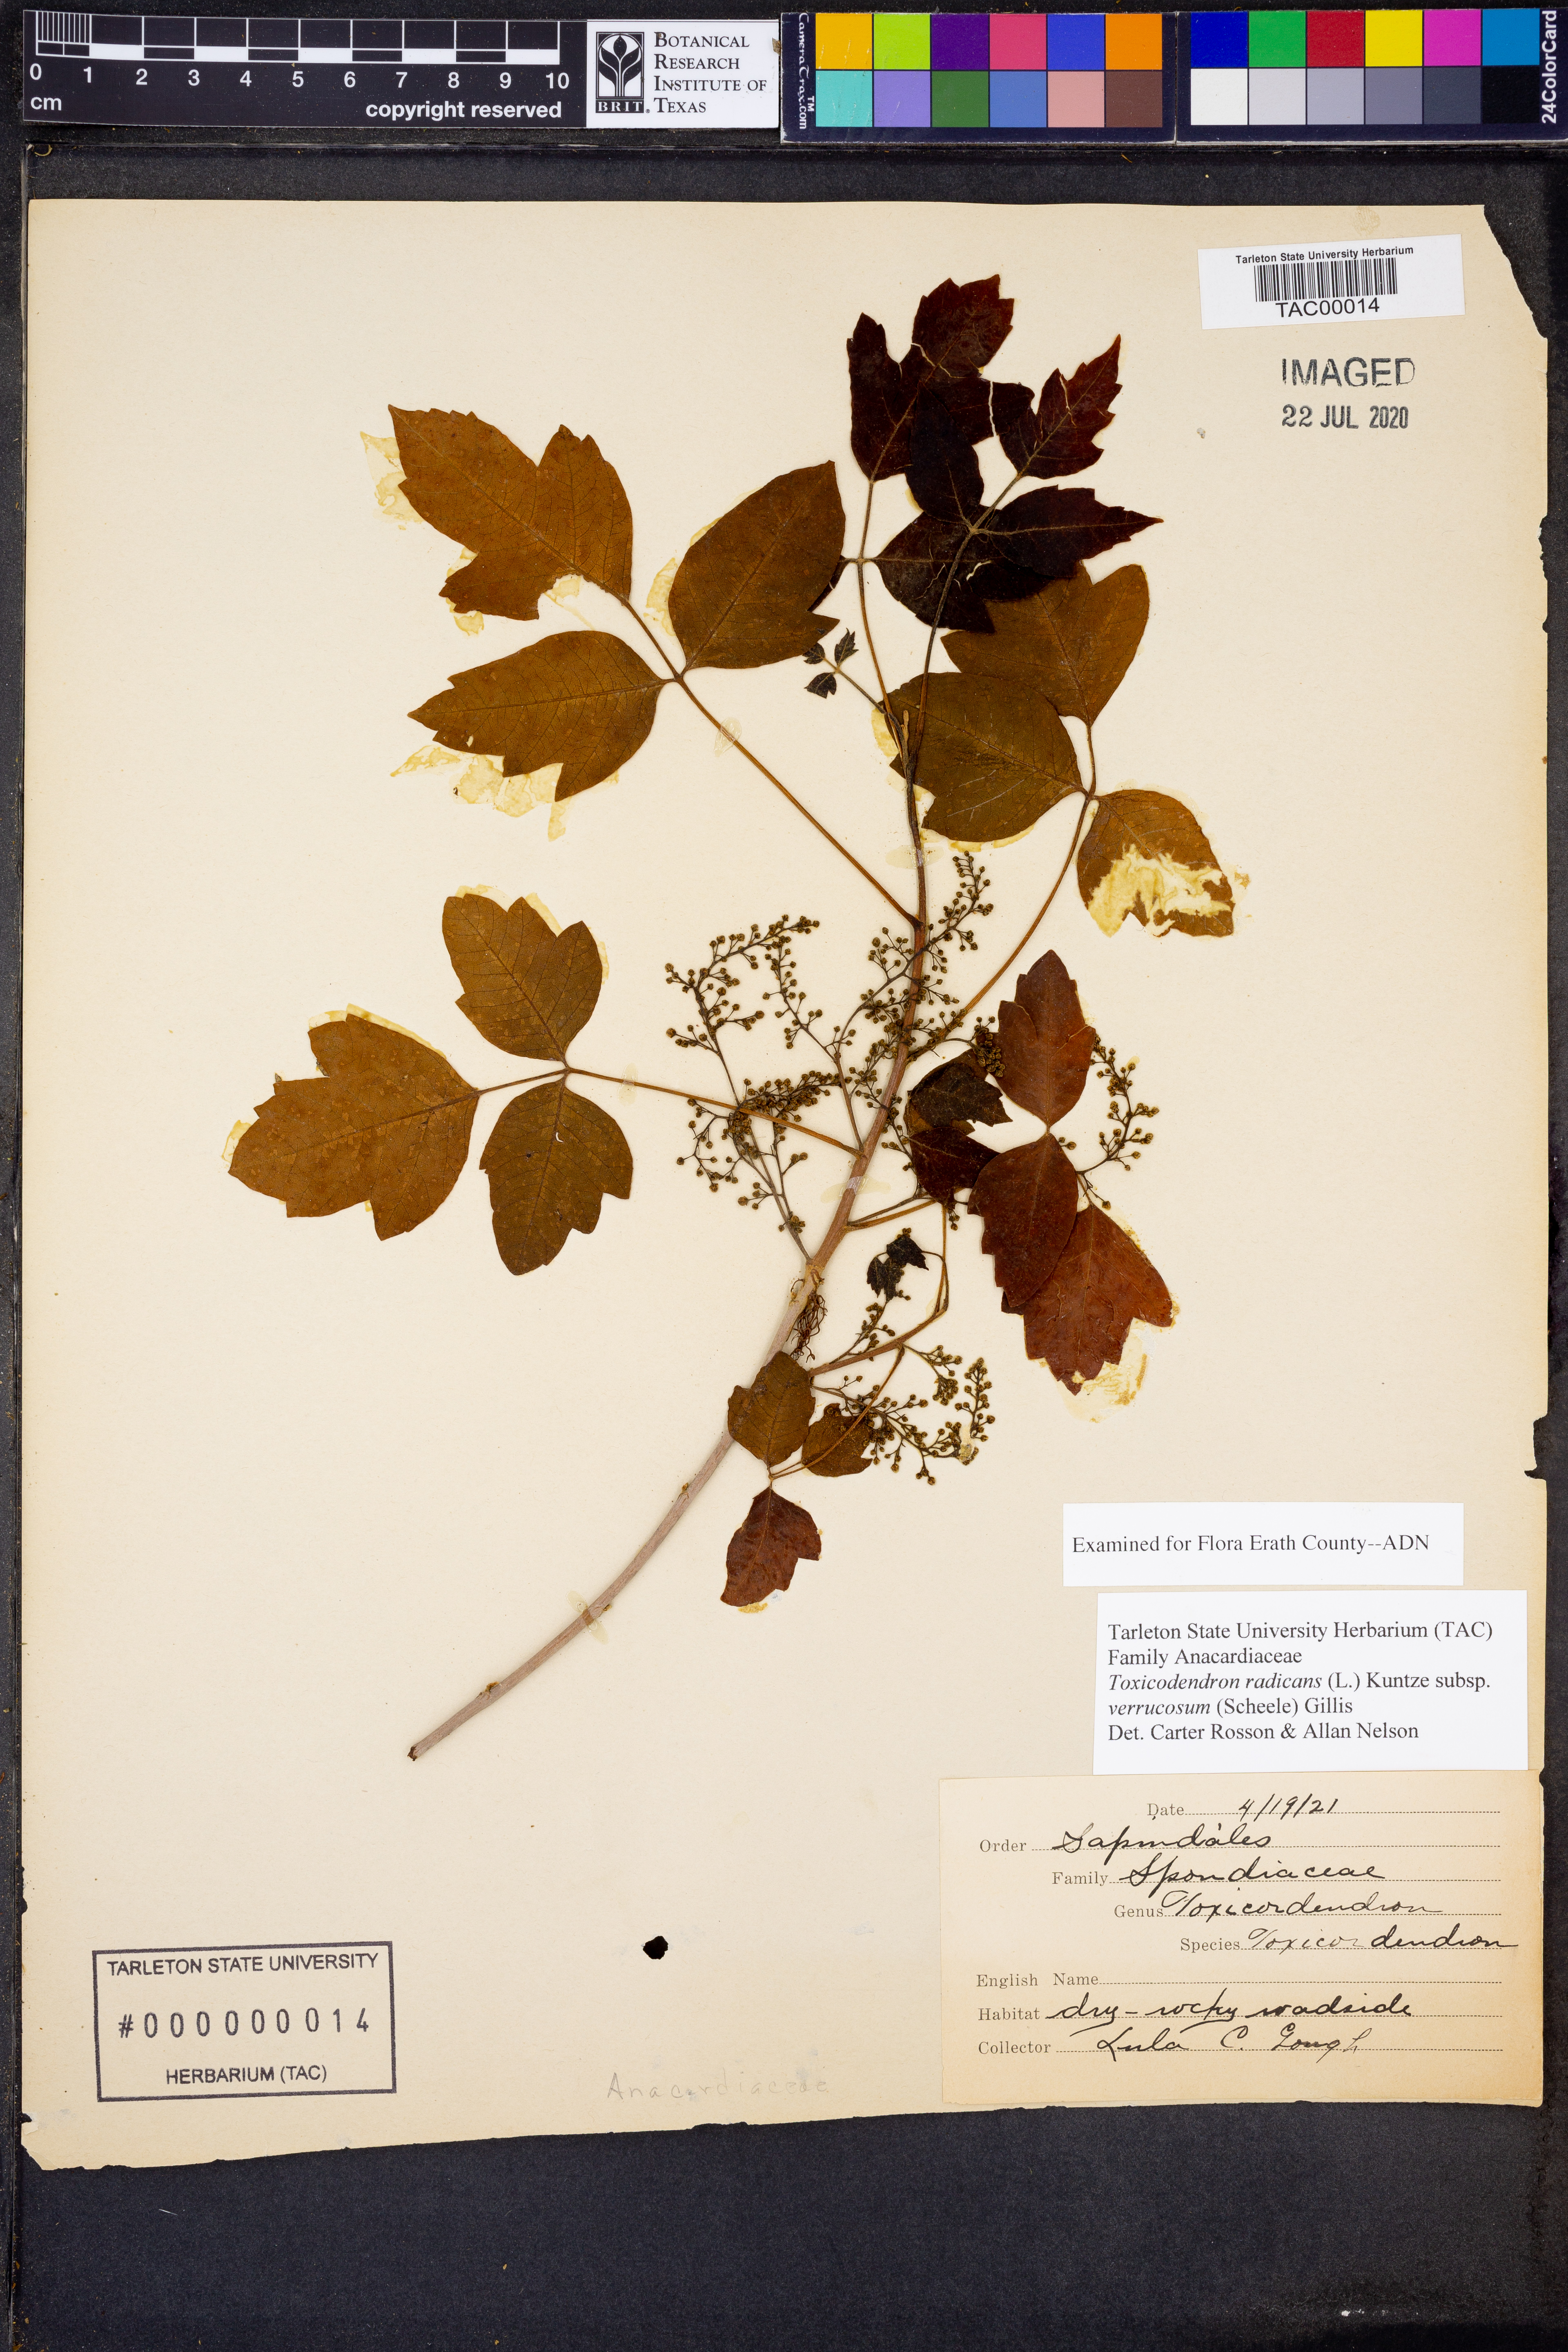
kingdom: Plantae
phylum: Tracheophyta
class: Magnoliopsida
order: Sapindales
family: Anacardiaceae
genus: Toxicodendron
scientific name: Toxicodendron radicans
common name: Poison ivy
